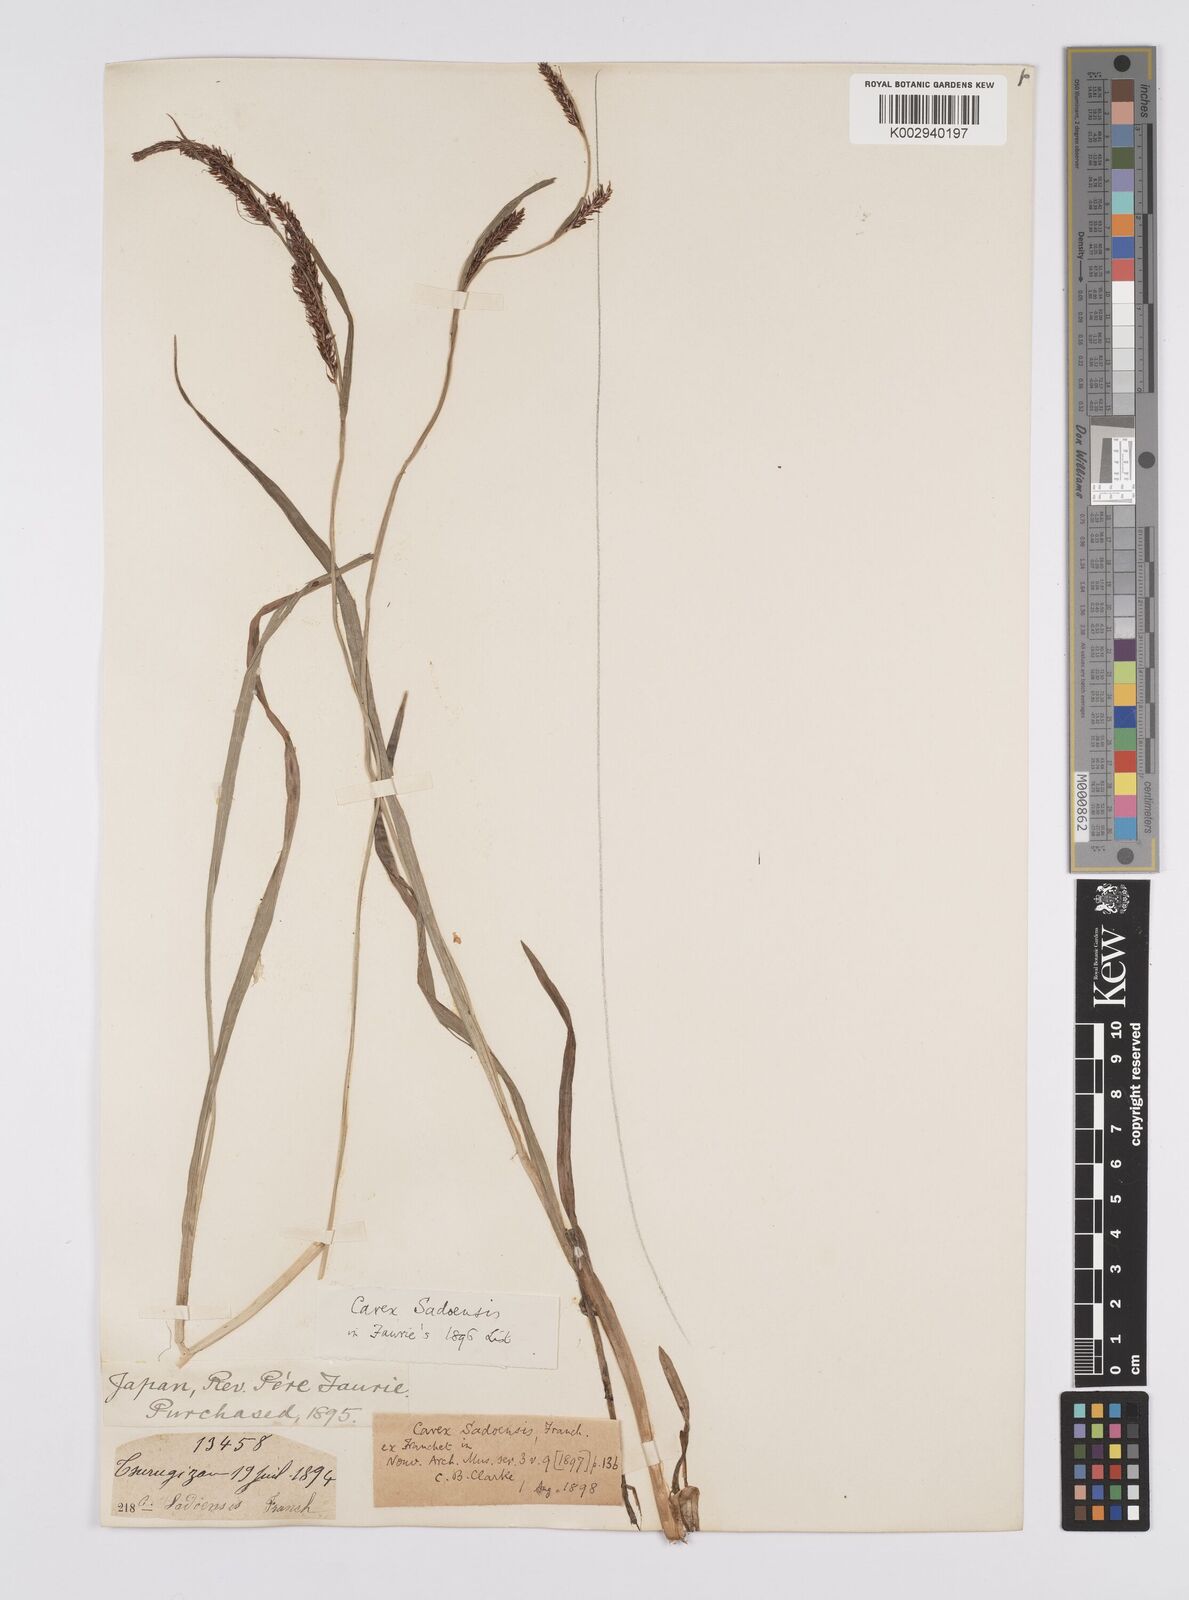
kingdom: Plantae
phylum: Tracheophyta
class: Liliopsida
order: Poales
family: Cyperaceae
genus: Carex
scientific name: Carex sadoensis
